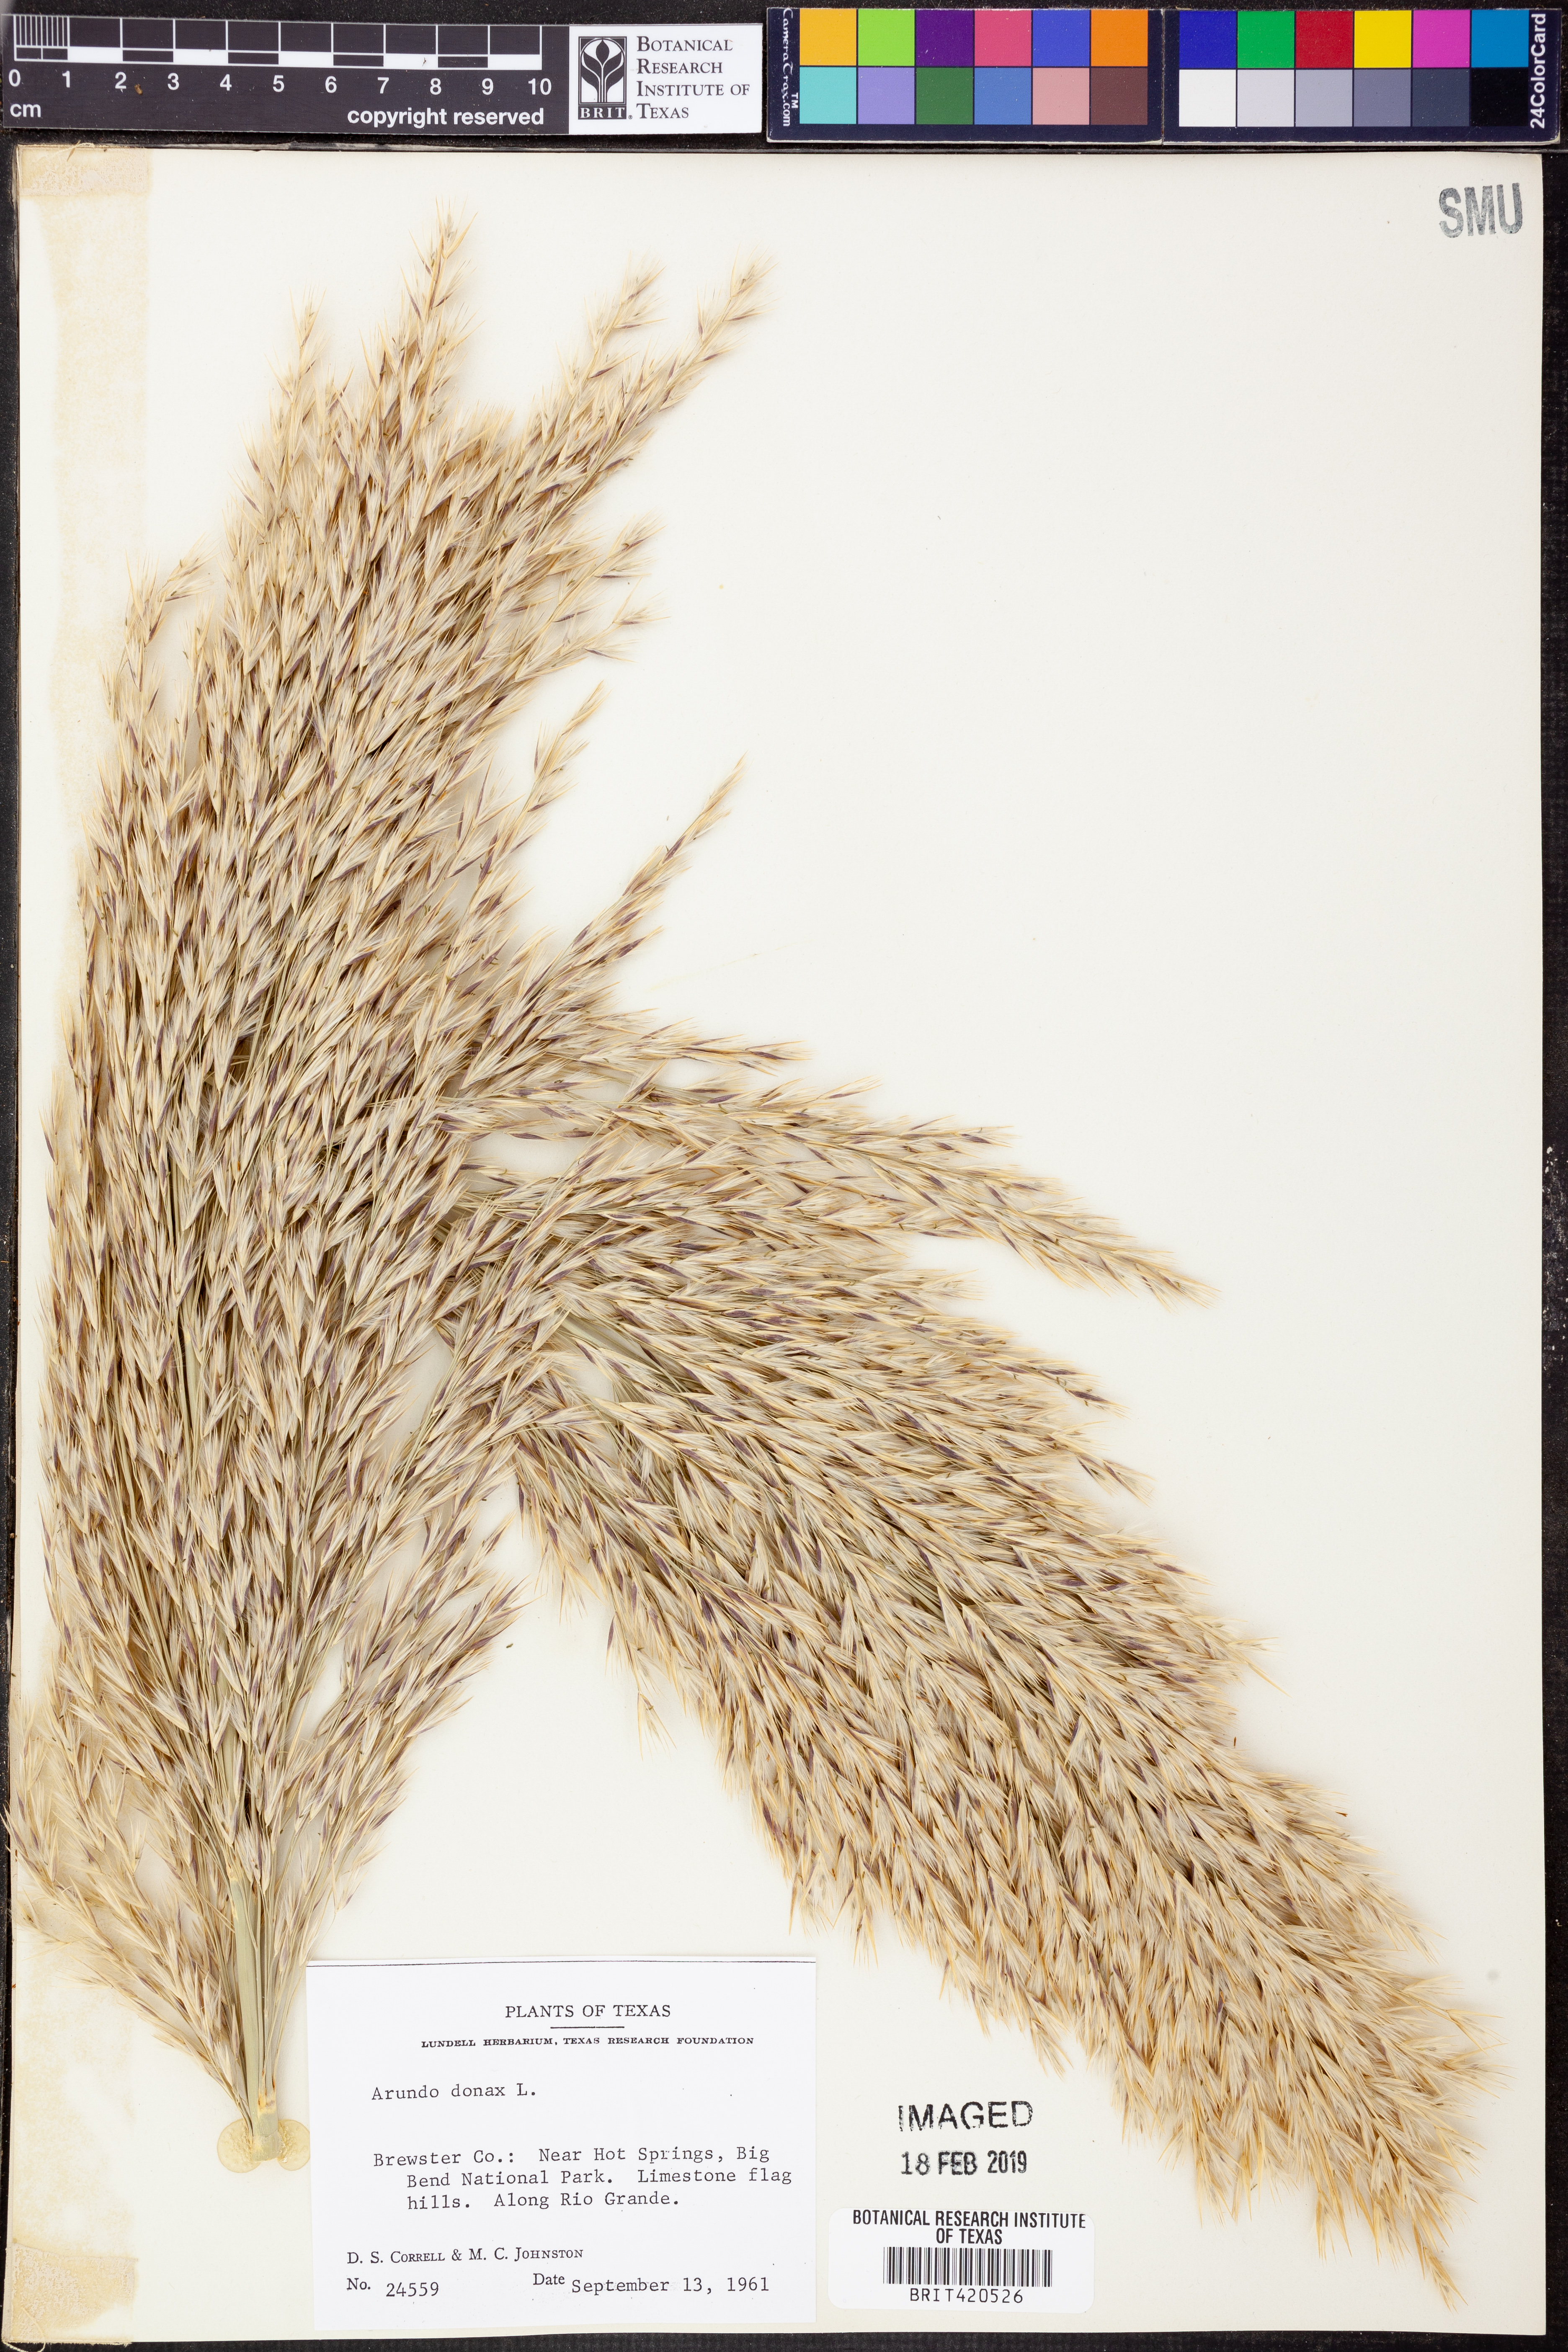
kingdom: Plantae
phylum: Tracheophyta
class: Liliopsida
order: Poales
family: Poaceae
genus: Arundo
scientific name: Arundo donax
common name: Giant reed
